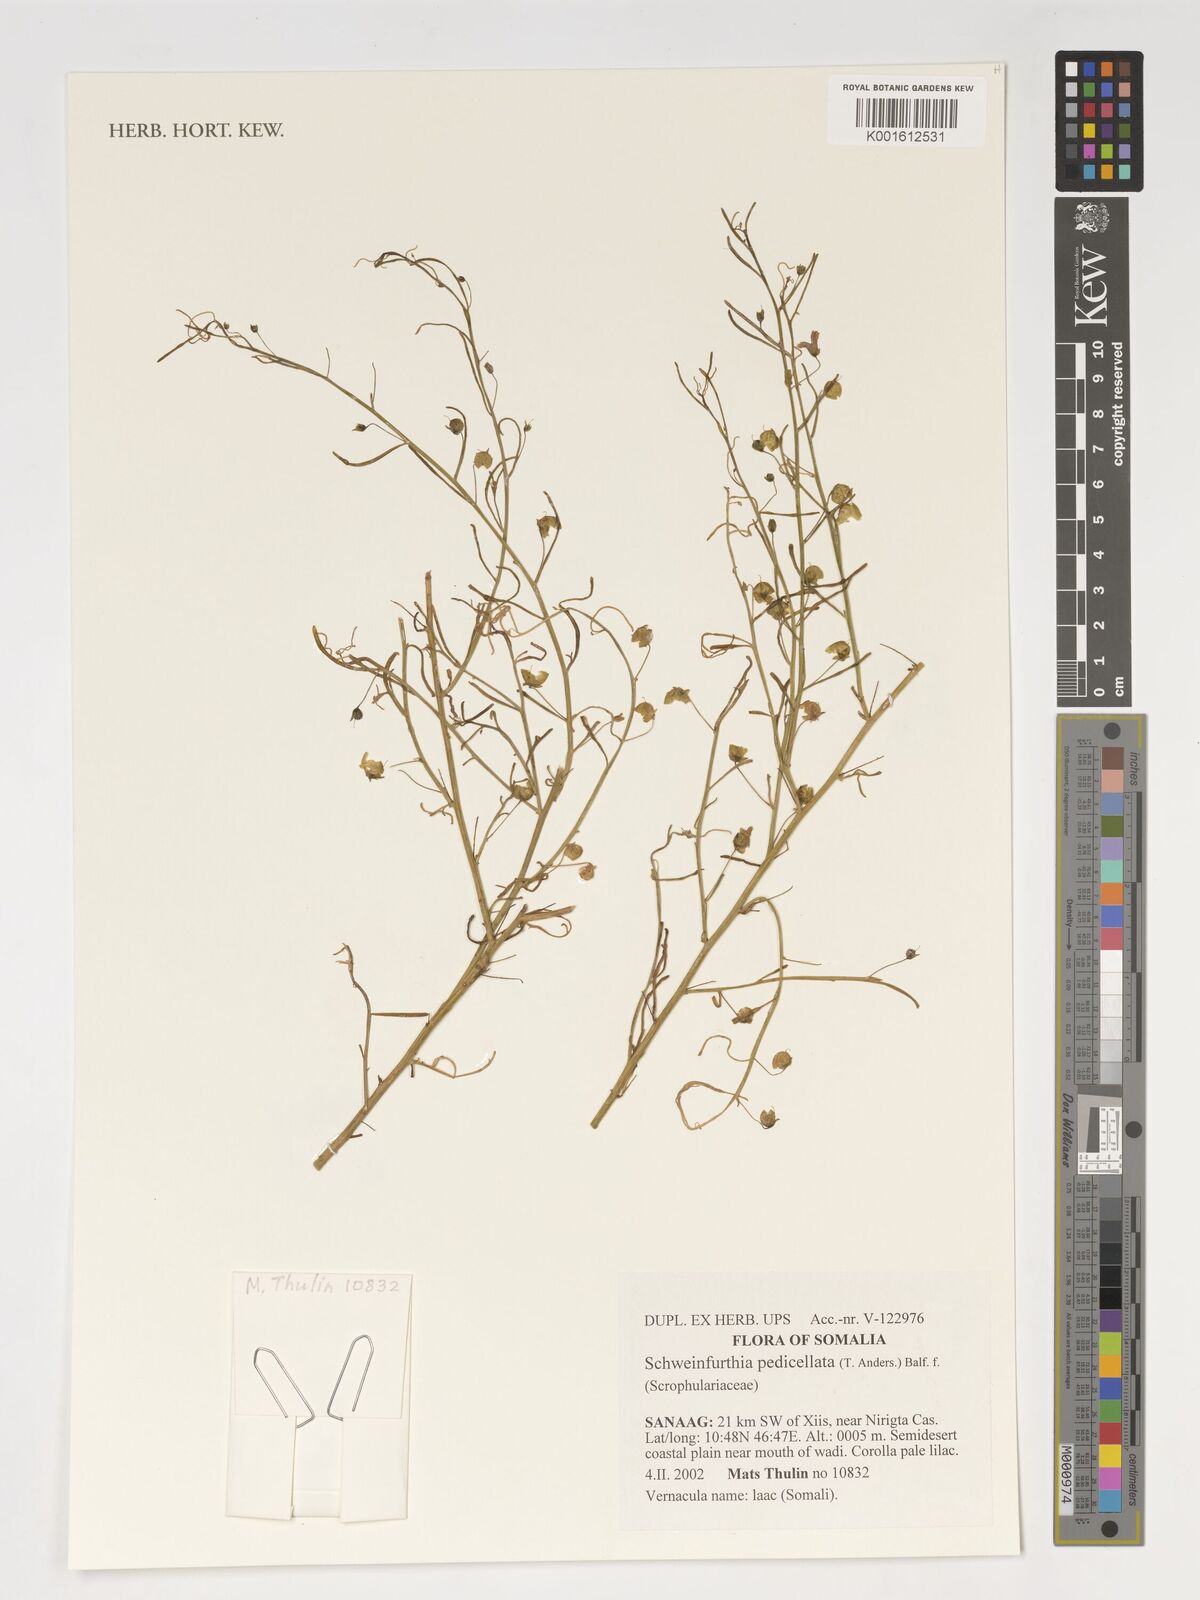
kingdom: Plantae
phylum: Tracheophyta
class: Magnoliopsida
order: Lamiales
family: Plantaginaceae
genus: Schweinfurthia
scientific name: Schweinfurthia pedicellata
